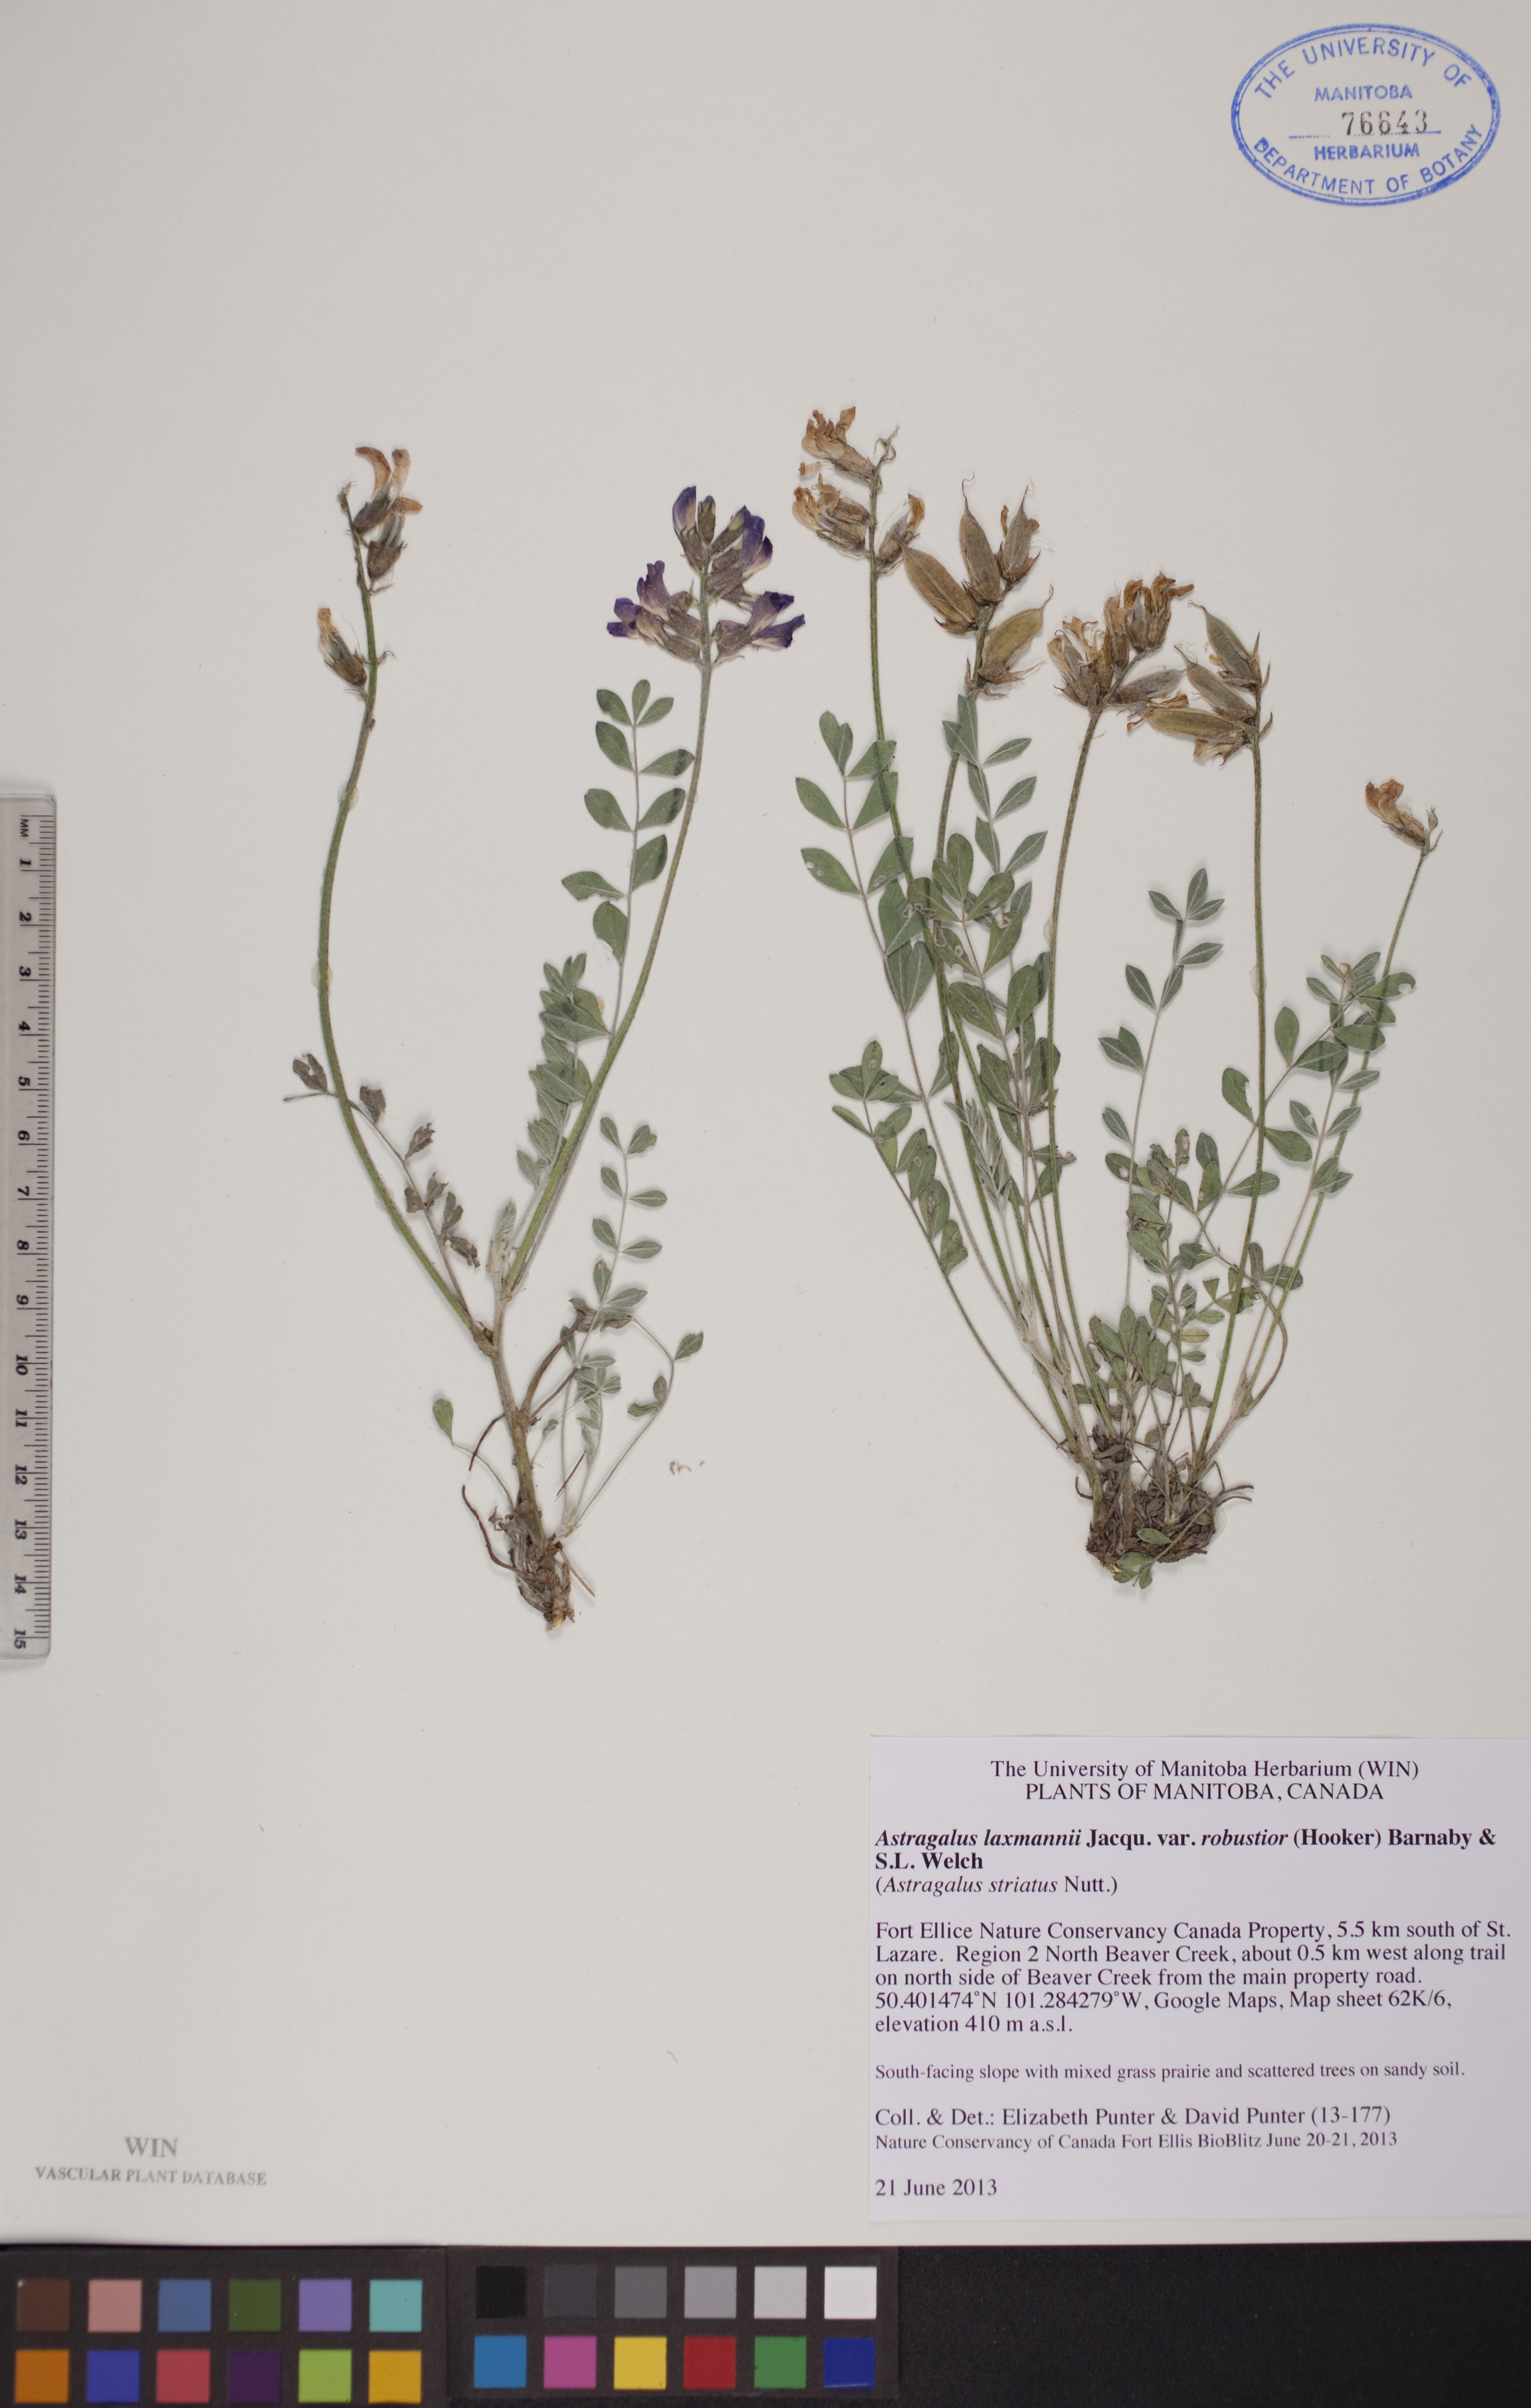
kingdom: Plantae
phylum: Tracheophyta
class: Magnoliopsida
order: Fabales
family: Fabaceae
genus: Astragalus
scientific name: Astragalus laxmannii
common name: Laxmann's milk-vetch
